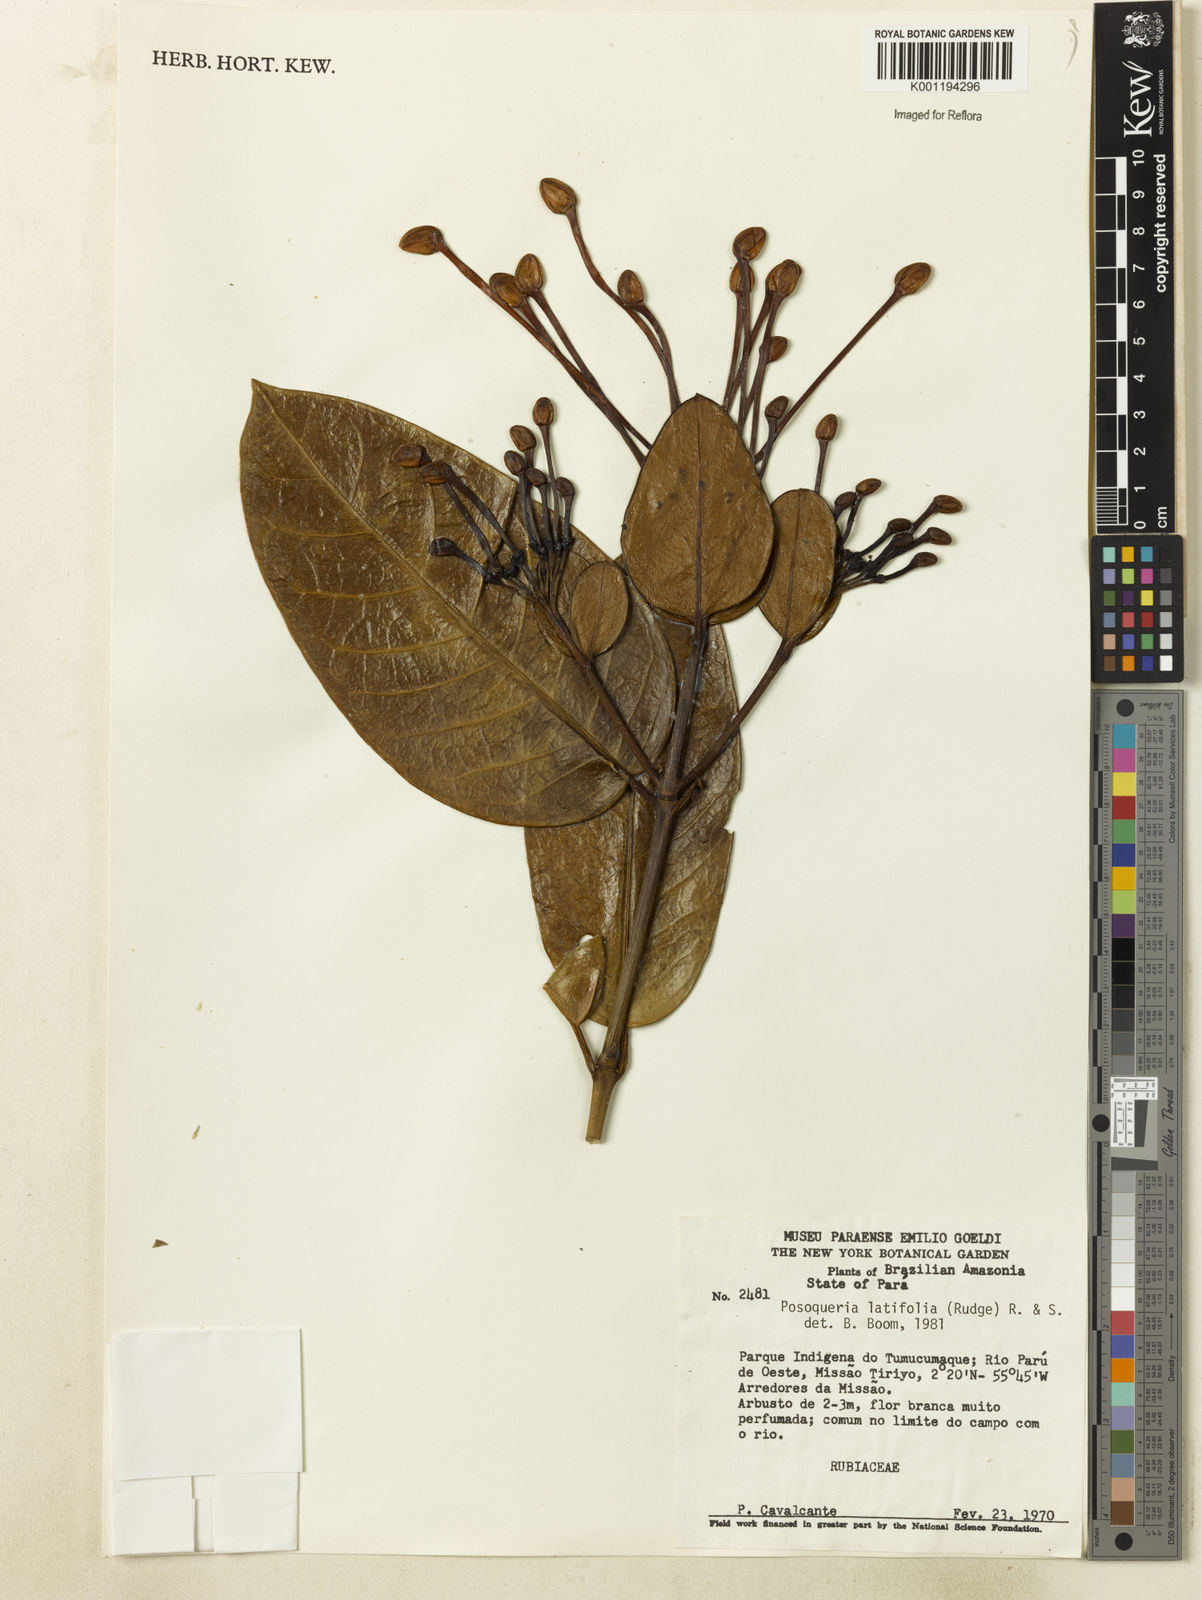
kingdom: Plantae
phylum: Tracheophyta
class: Magnoliopsida
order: Gentianales
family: Rubiaceae
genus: Posoqueria
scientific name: Posoqueria latifolia
